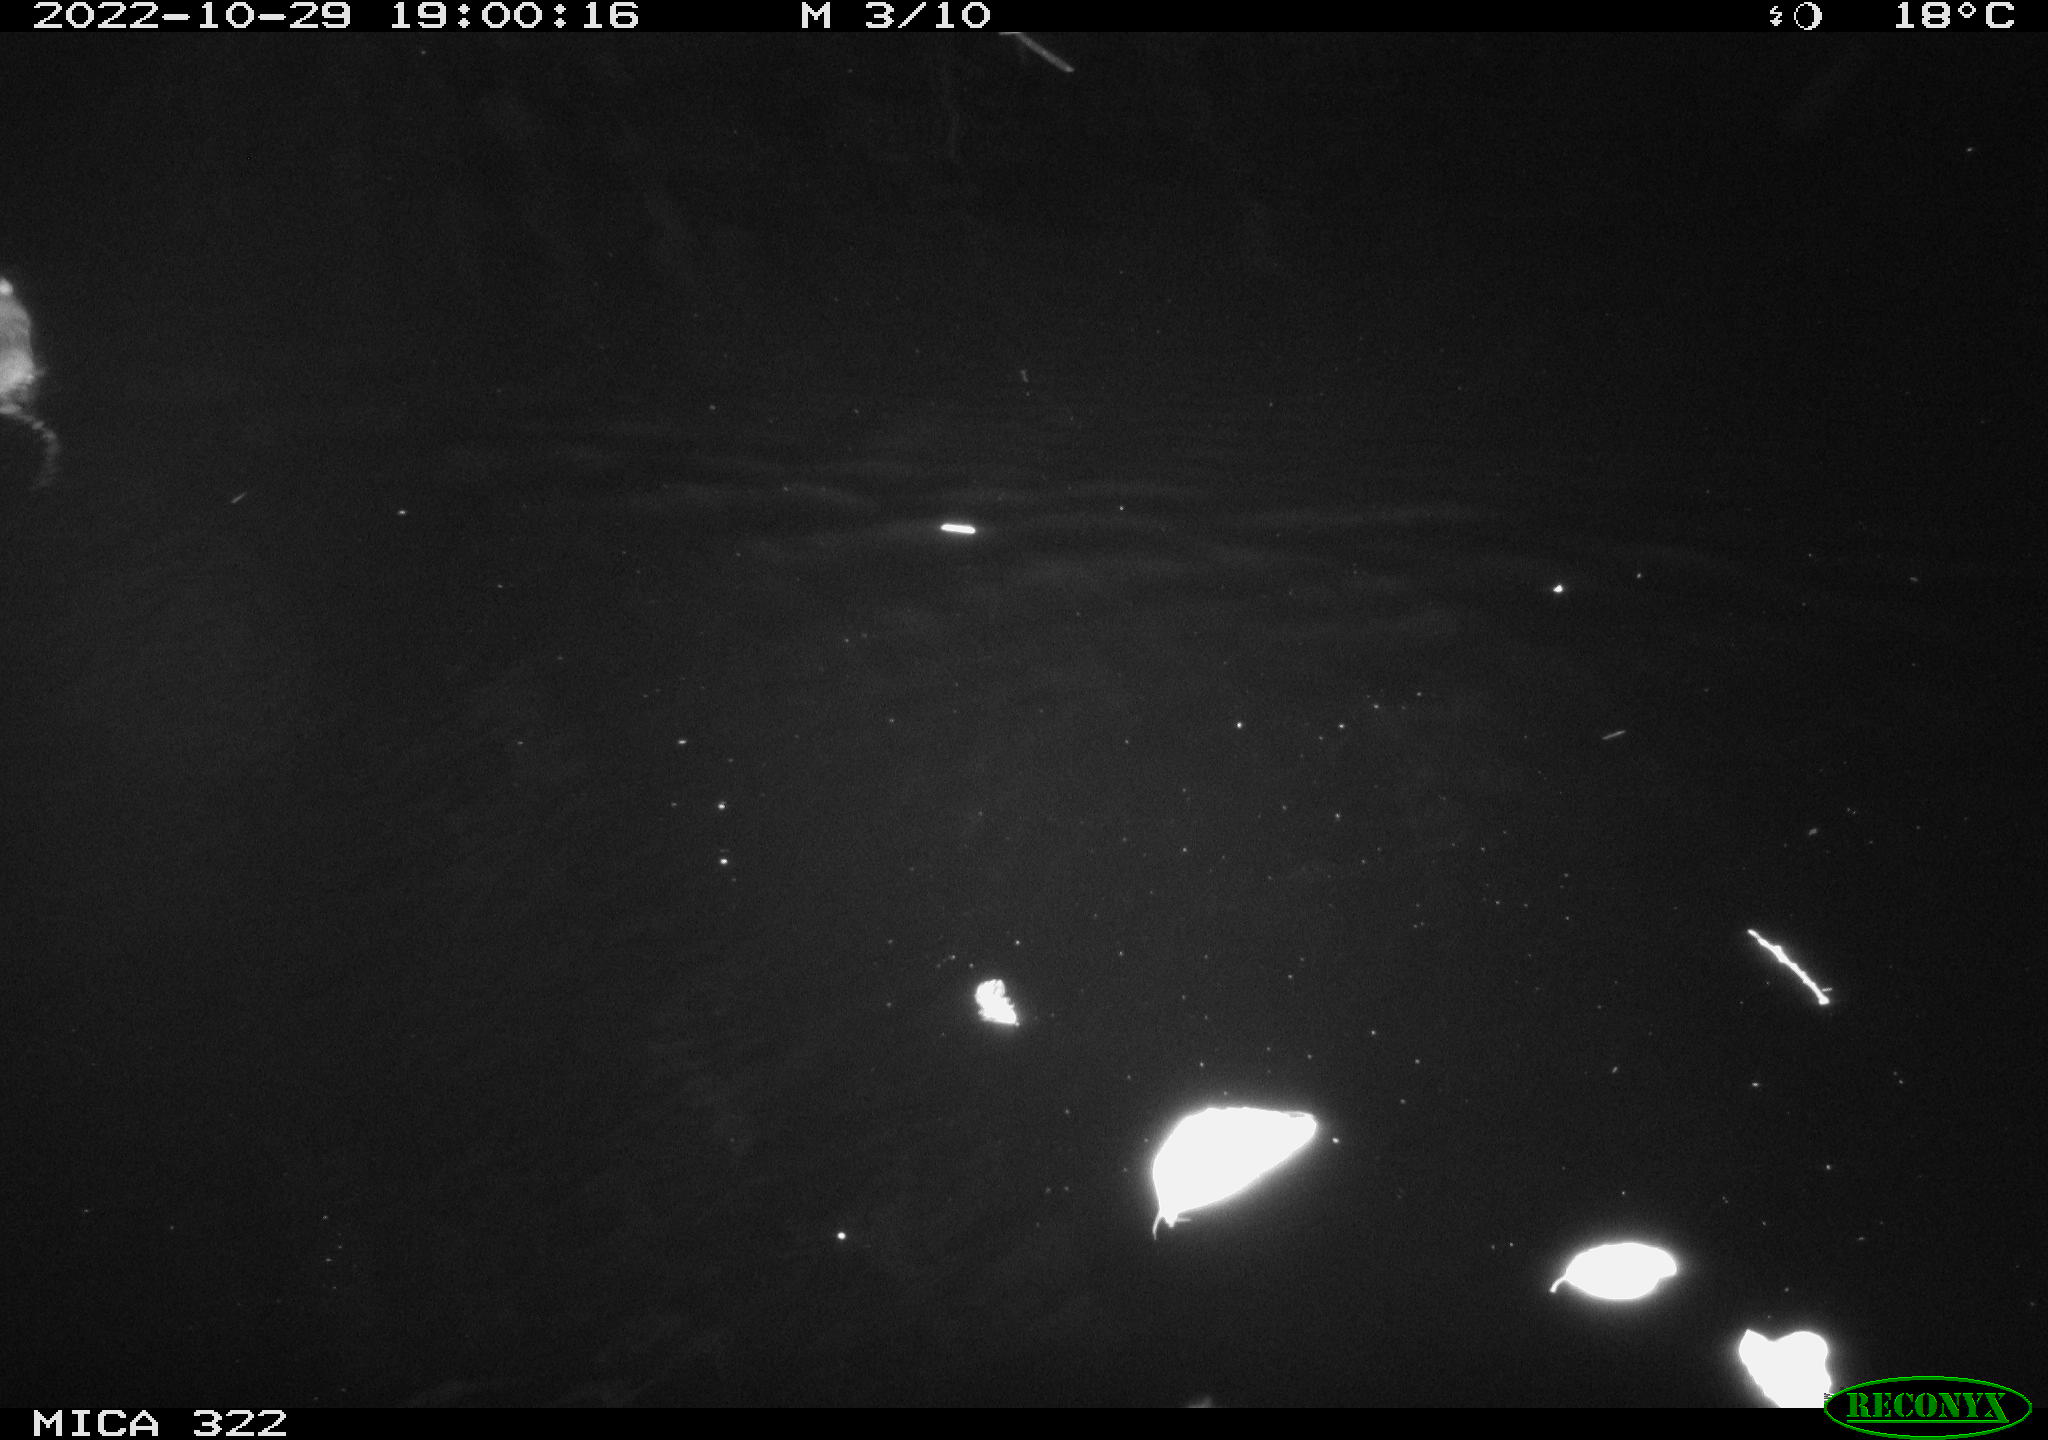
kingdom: Animalia
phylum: Chordata
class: Mammalia
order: Rodentia
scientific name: Rodentia
